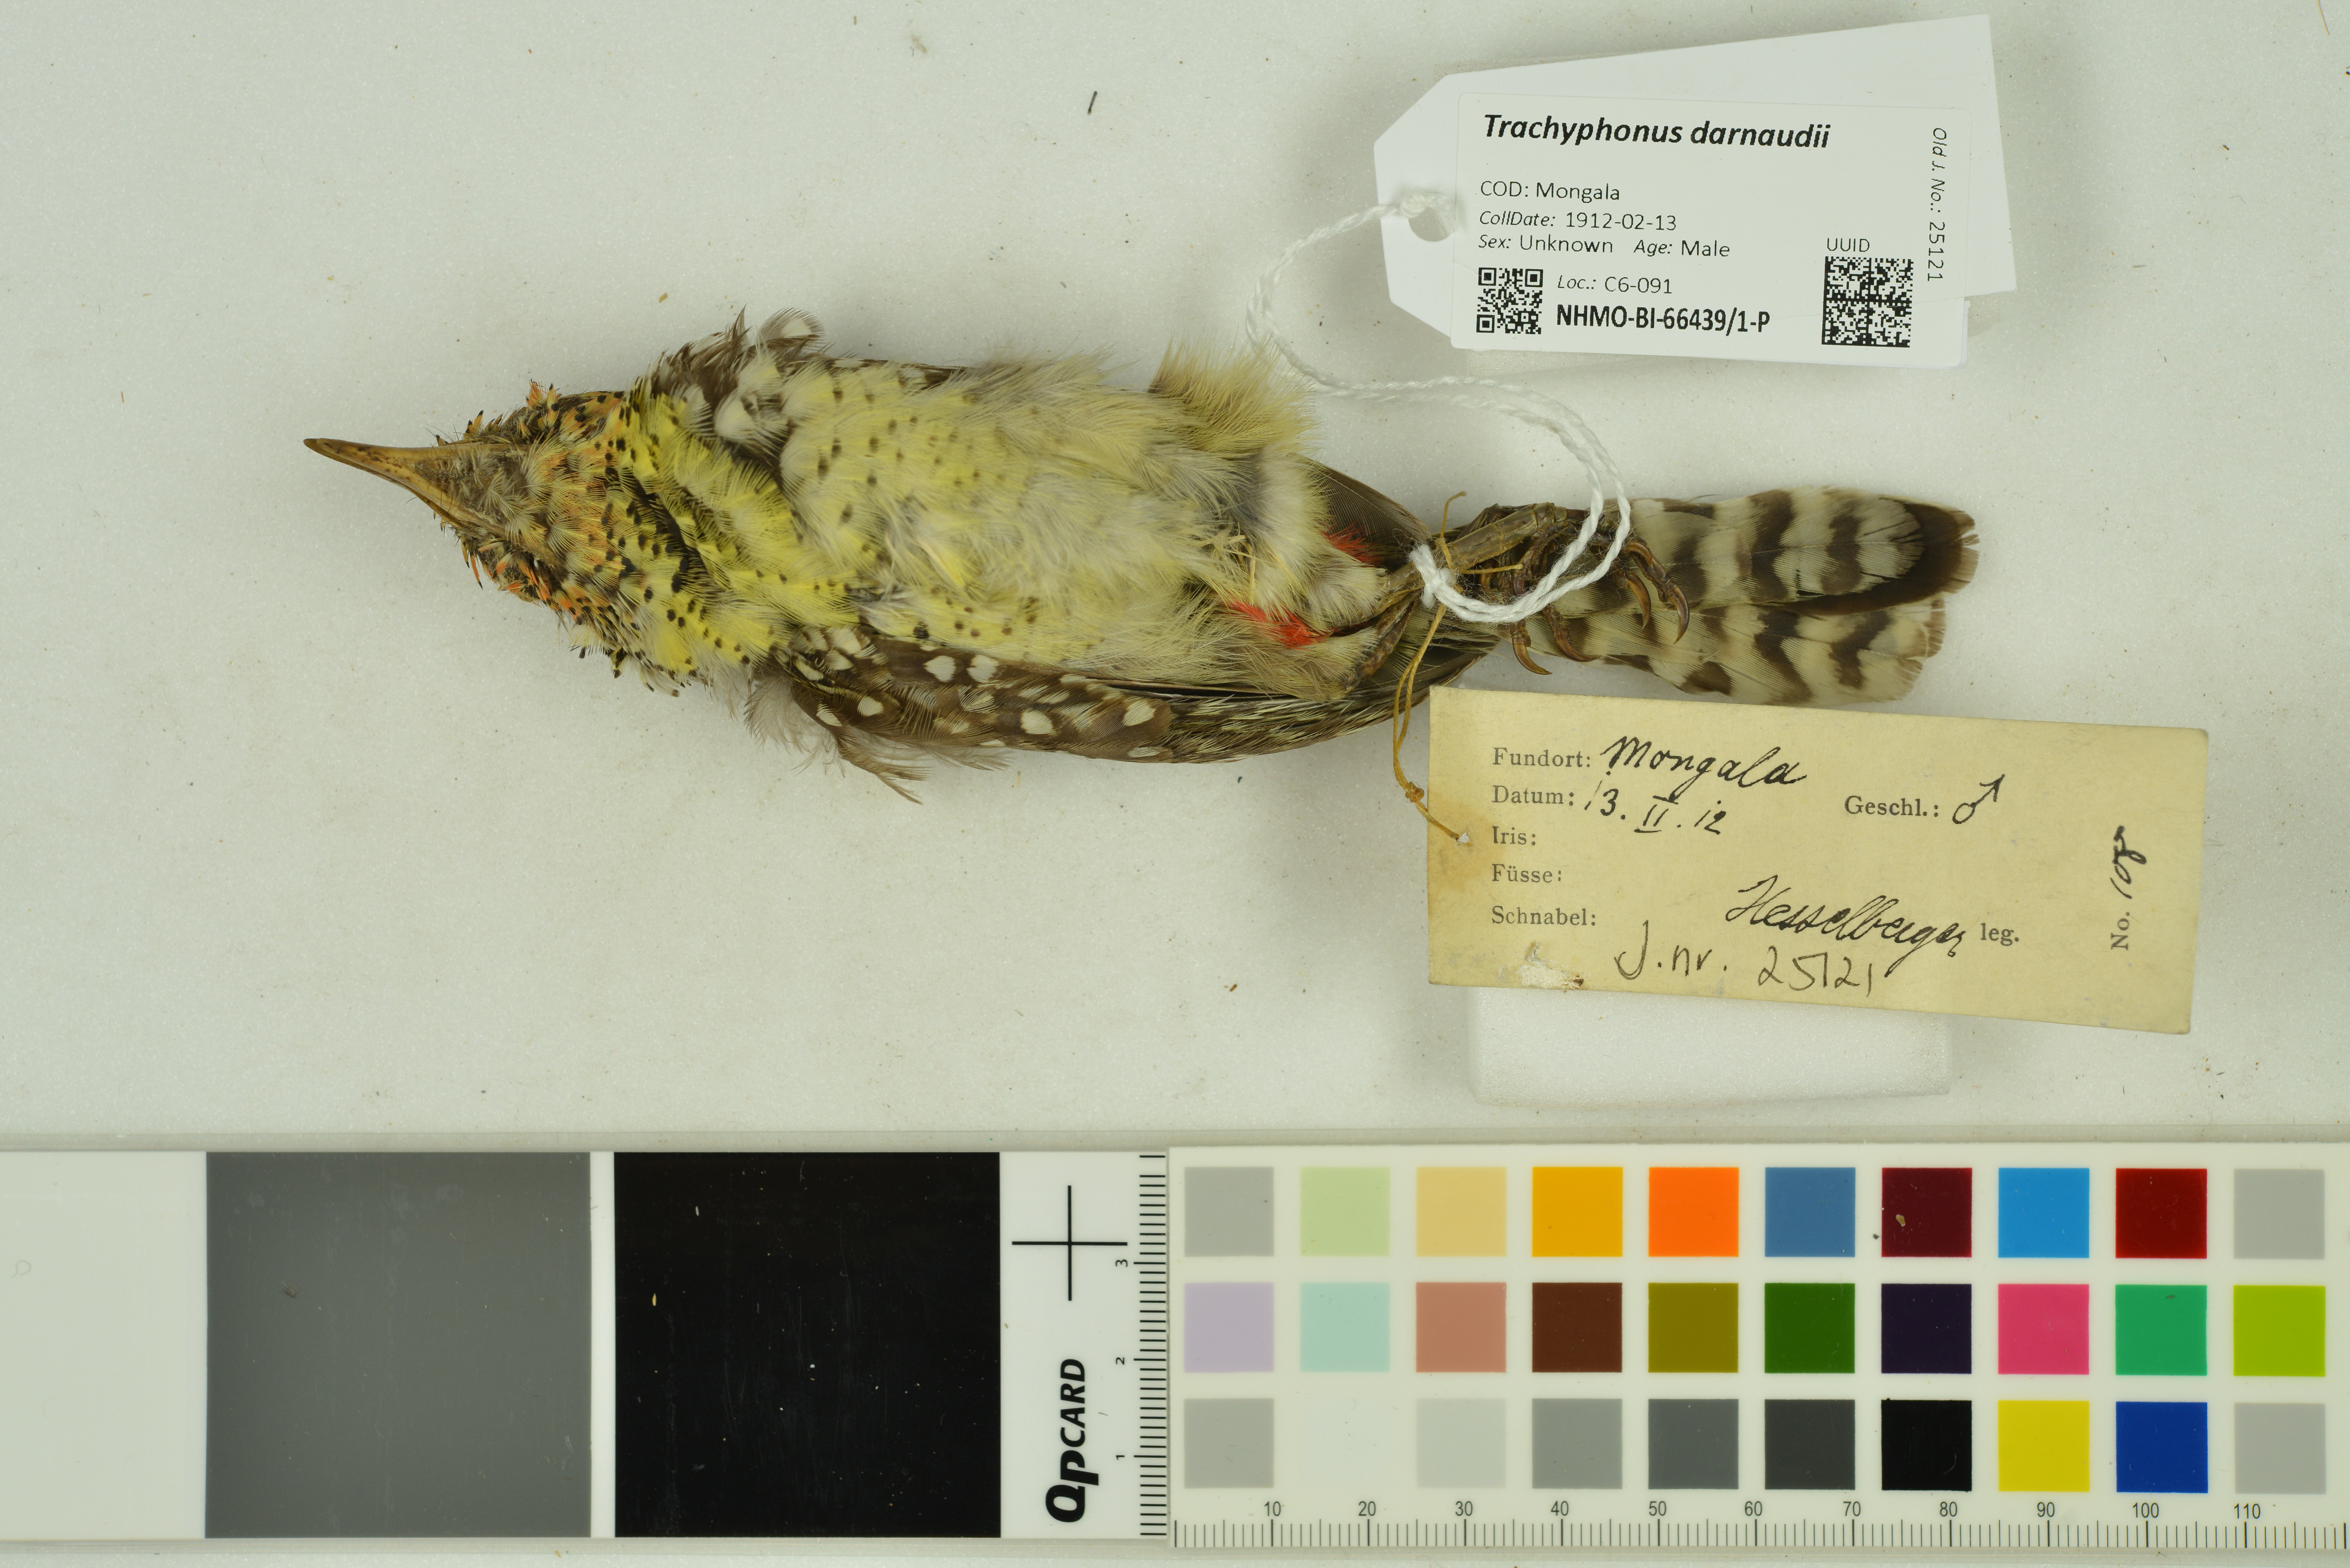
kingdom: Animalia
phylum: Chordata
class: Aves
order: Piciformes
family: Lybiidae
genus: Trachyphonus
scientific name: Trachyphonus darnaudii
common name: D'arnaud's barbet
